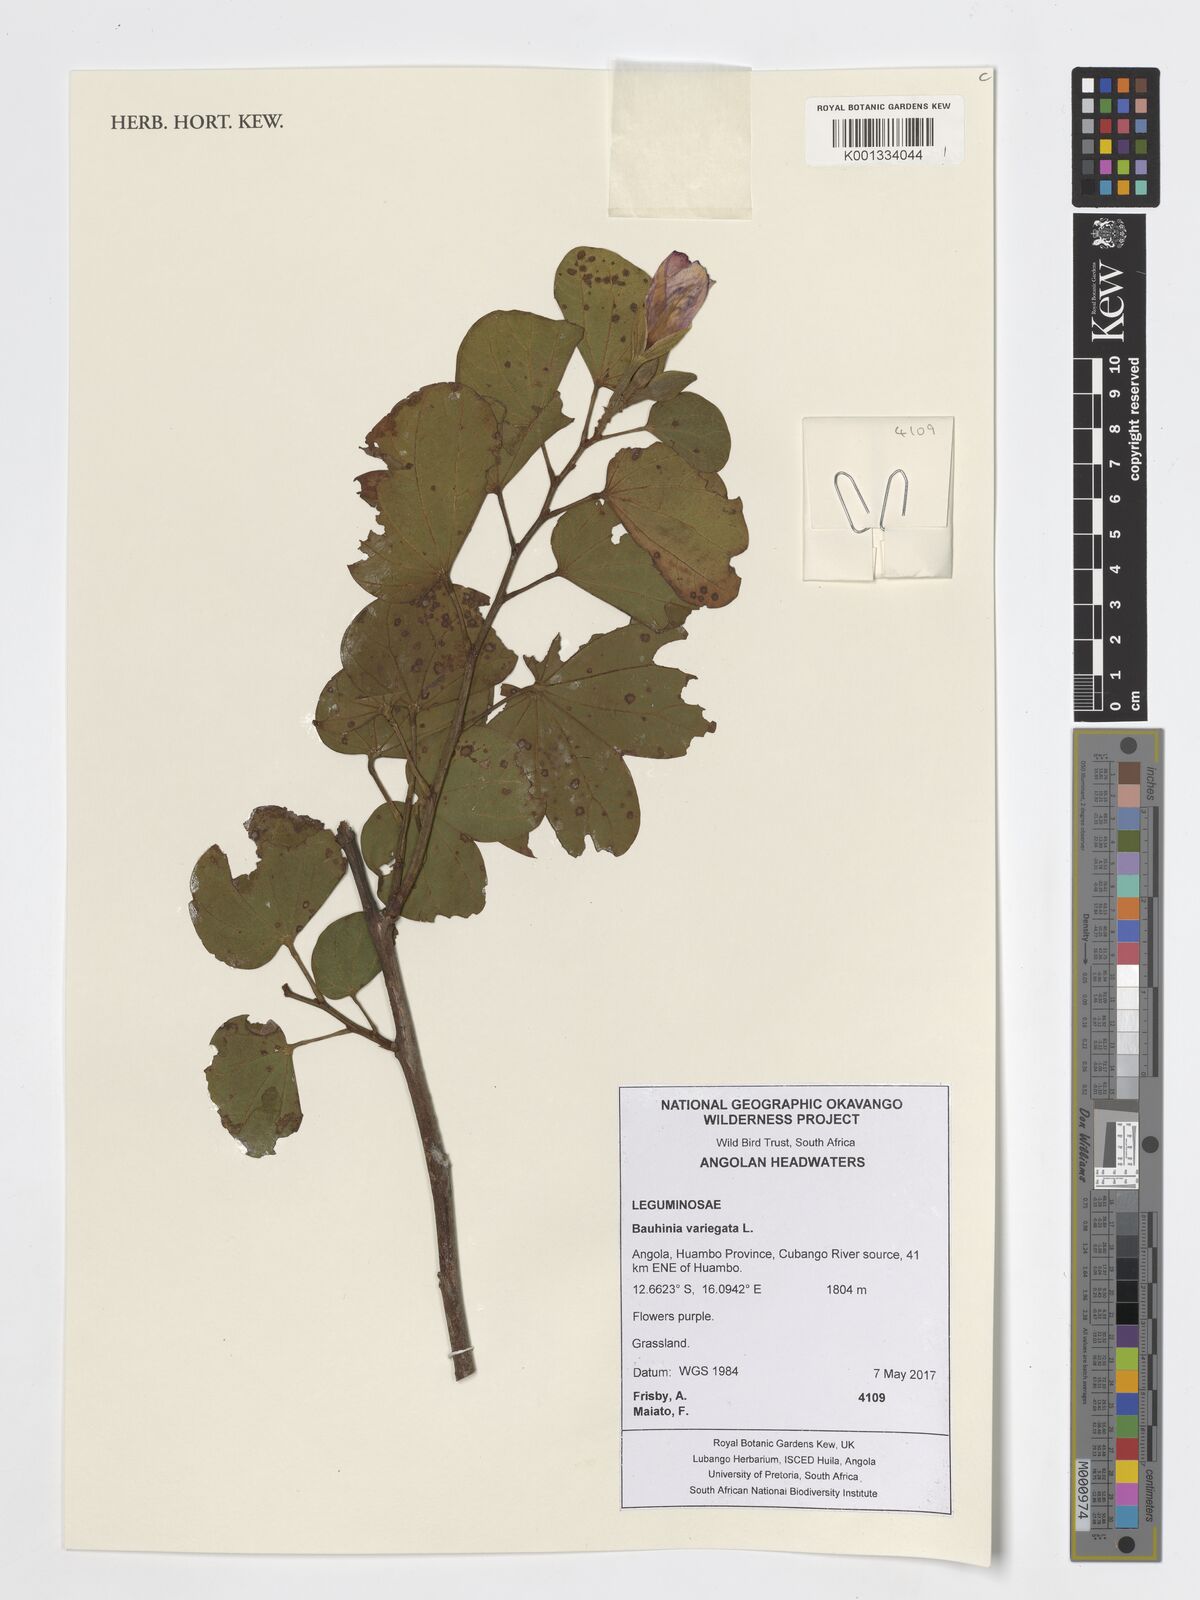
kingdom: Plantae
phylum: Tracheophyta
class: Magnoliopsida
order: Fabales
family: Fabaceae
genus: Bauhinia
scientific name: Bauhinia variegata
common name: Mountain ebony
